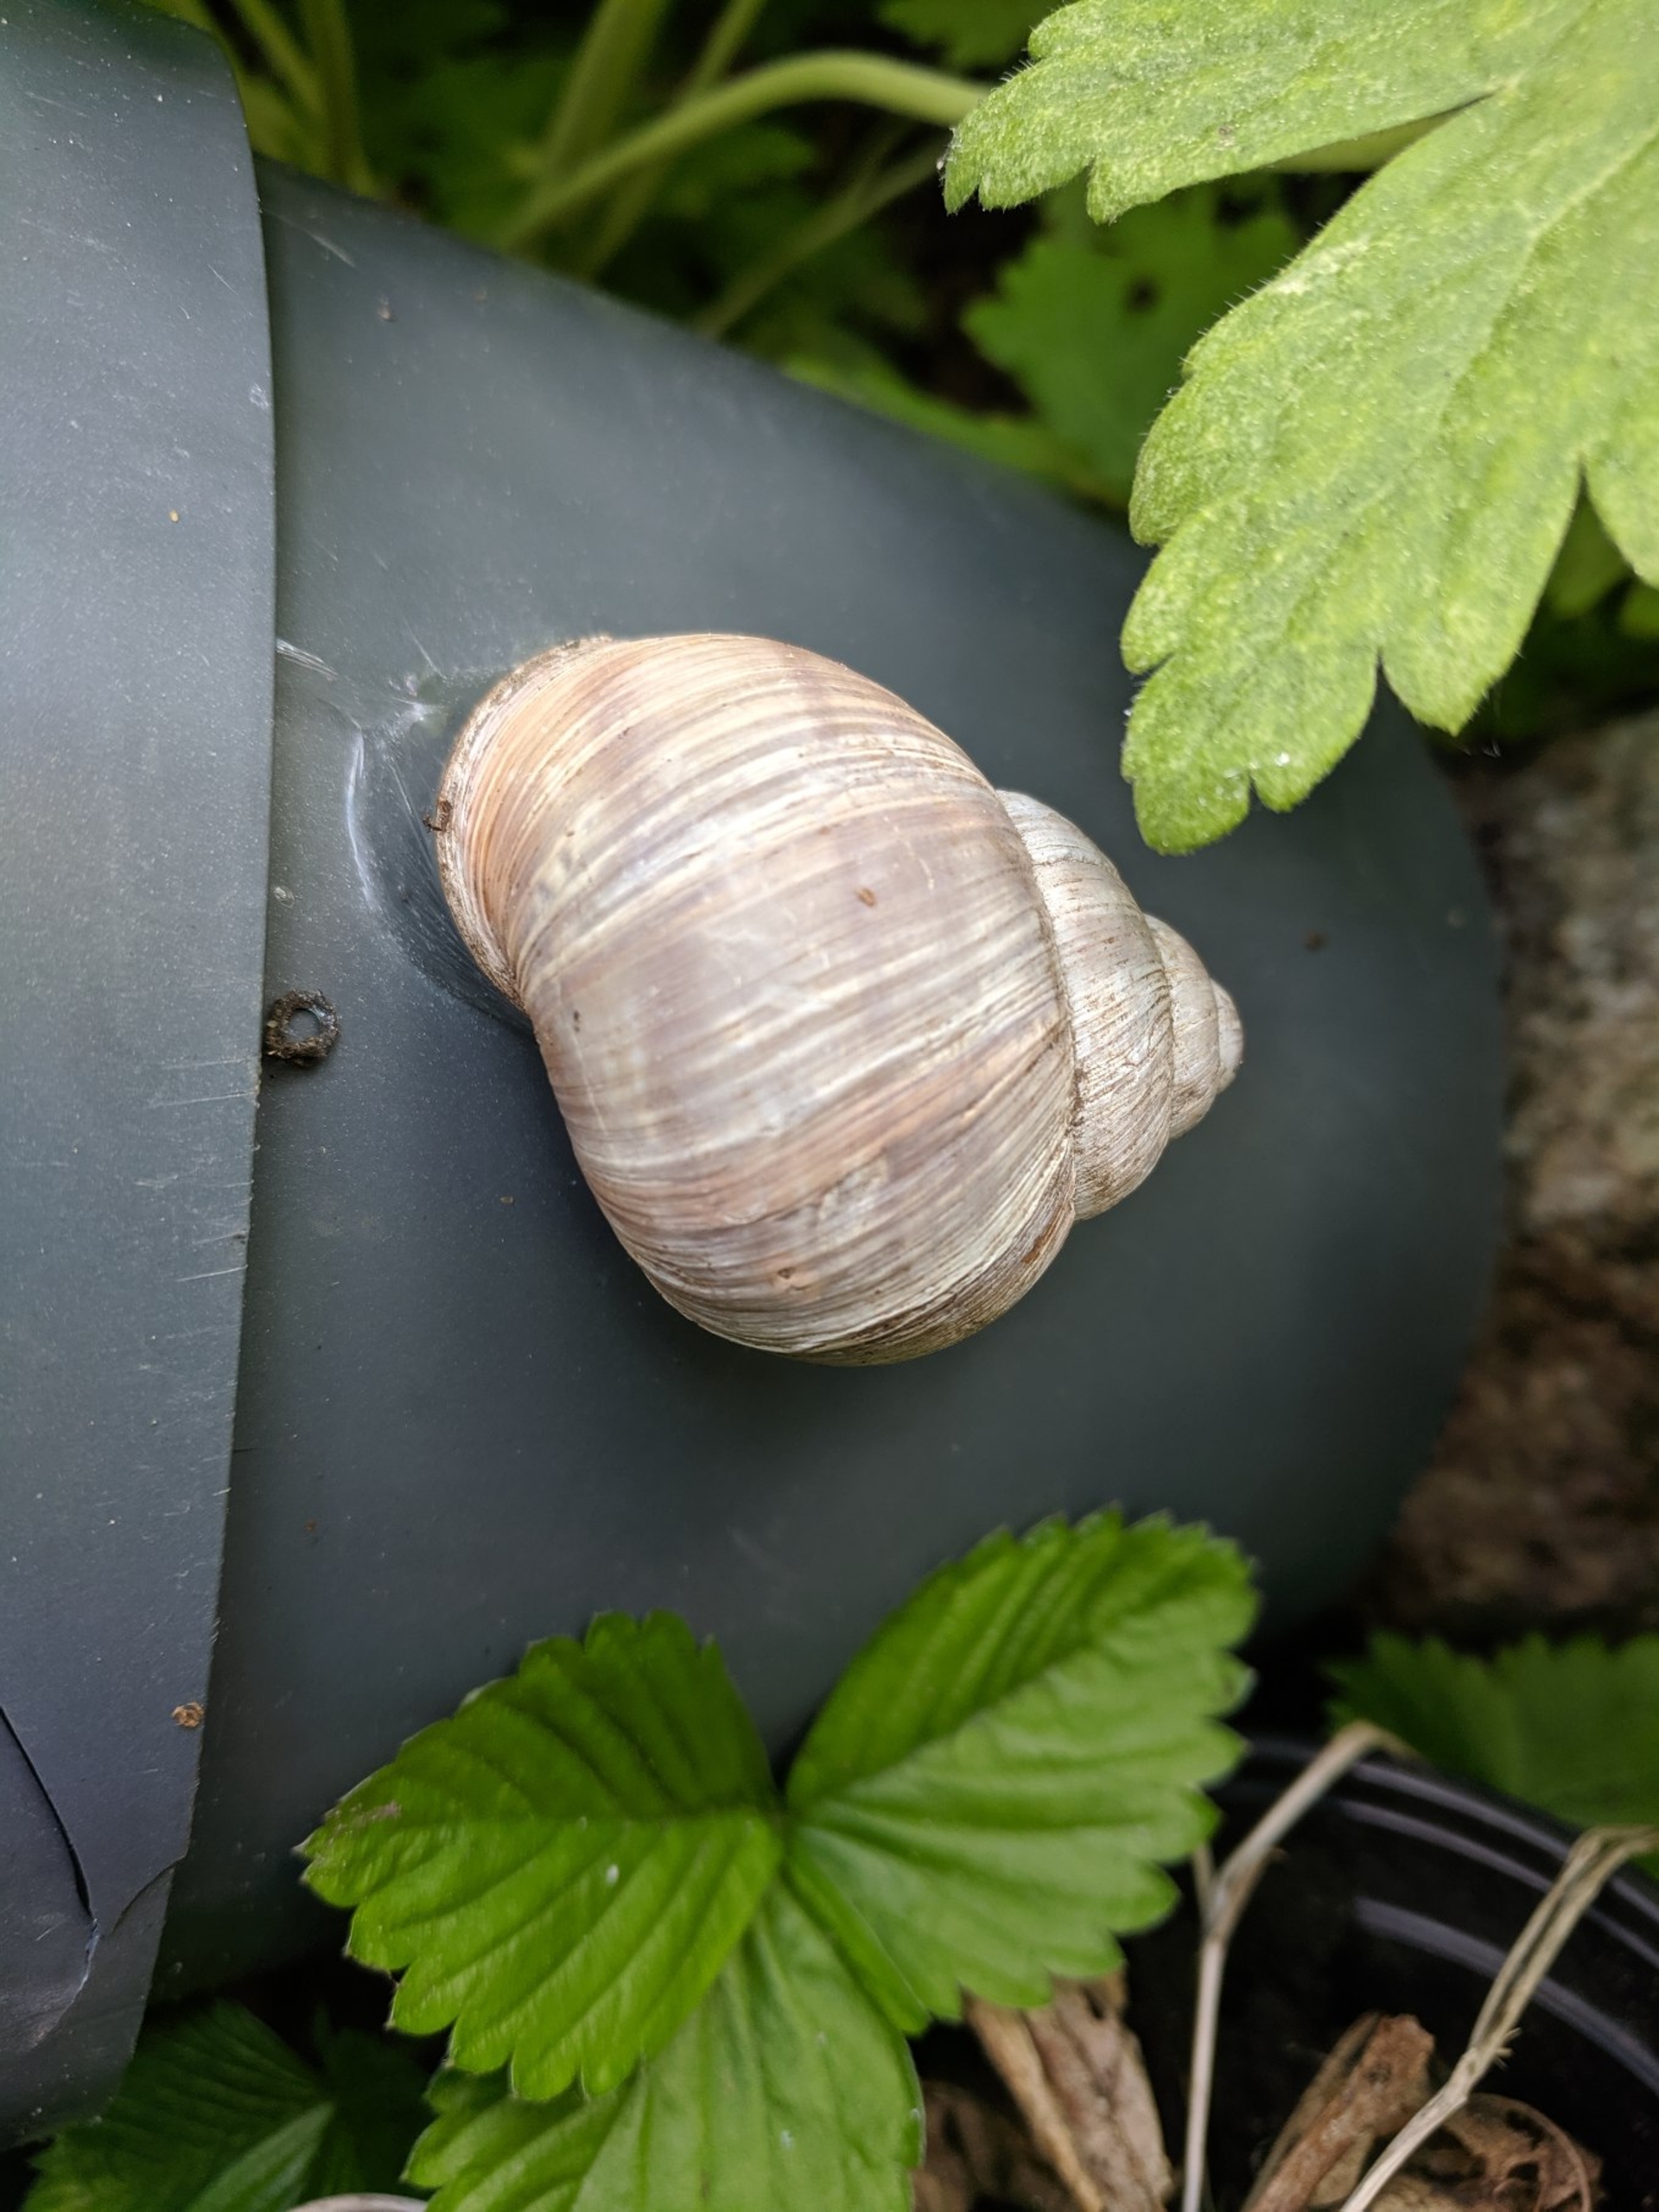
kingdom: Animalia
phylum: Mollusca
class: Gastropoda
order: Stylommatophora
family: Helicidae
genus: Helix
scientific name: Helix pomatia
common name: Vinbjergsnegl
